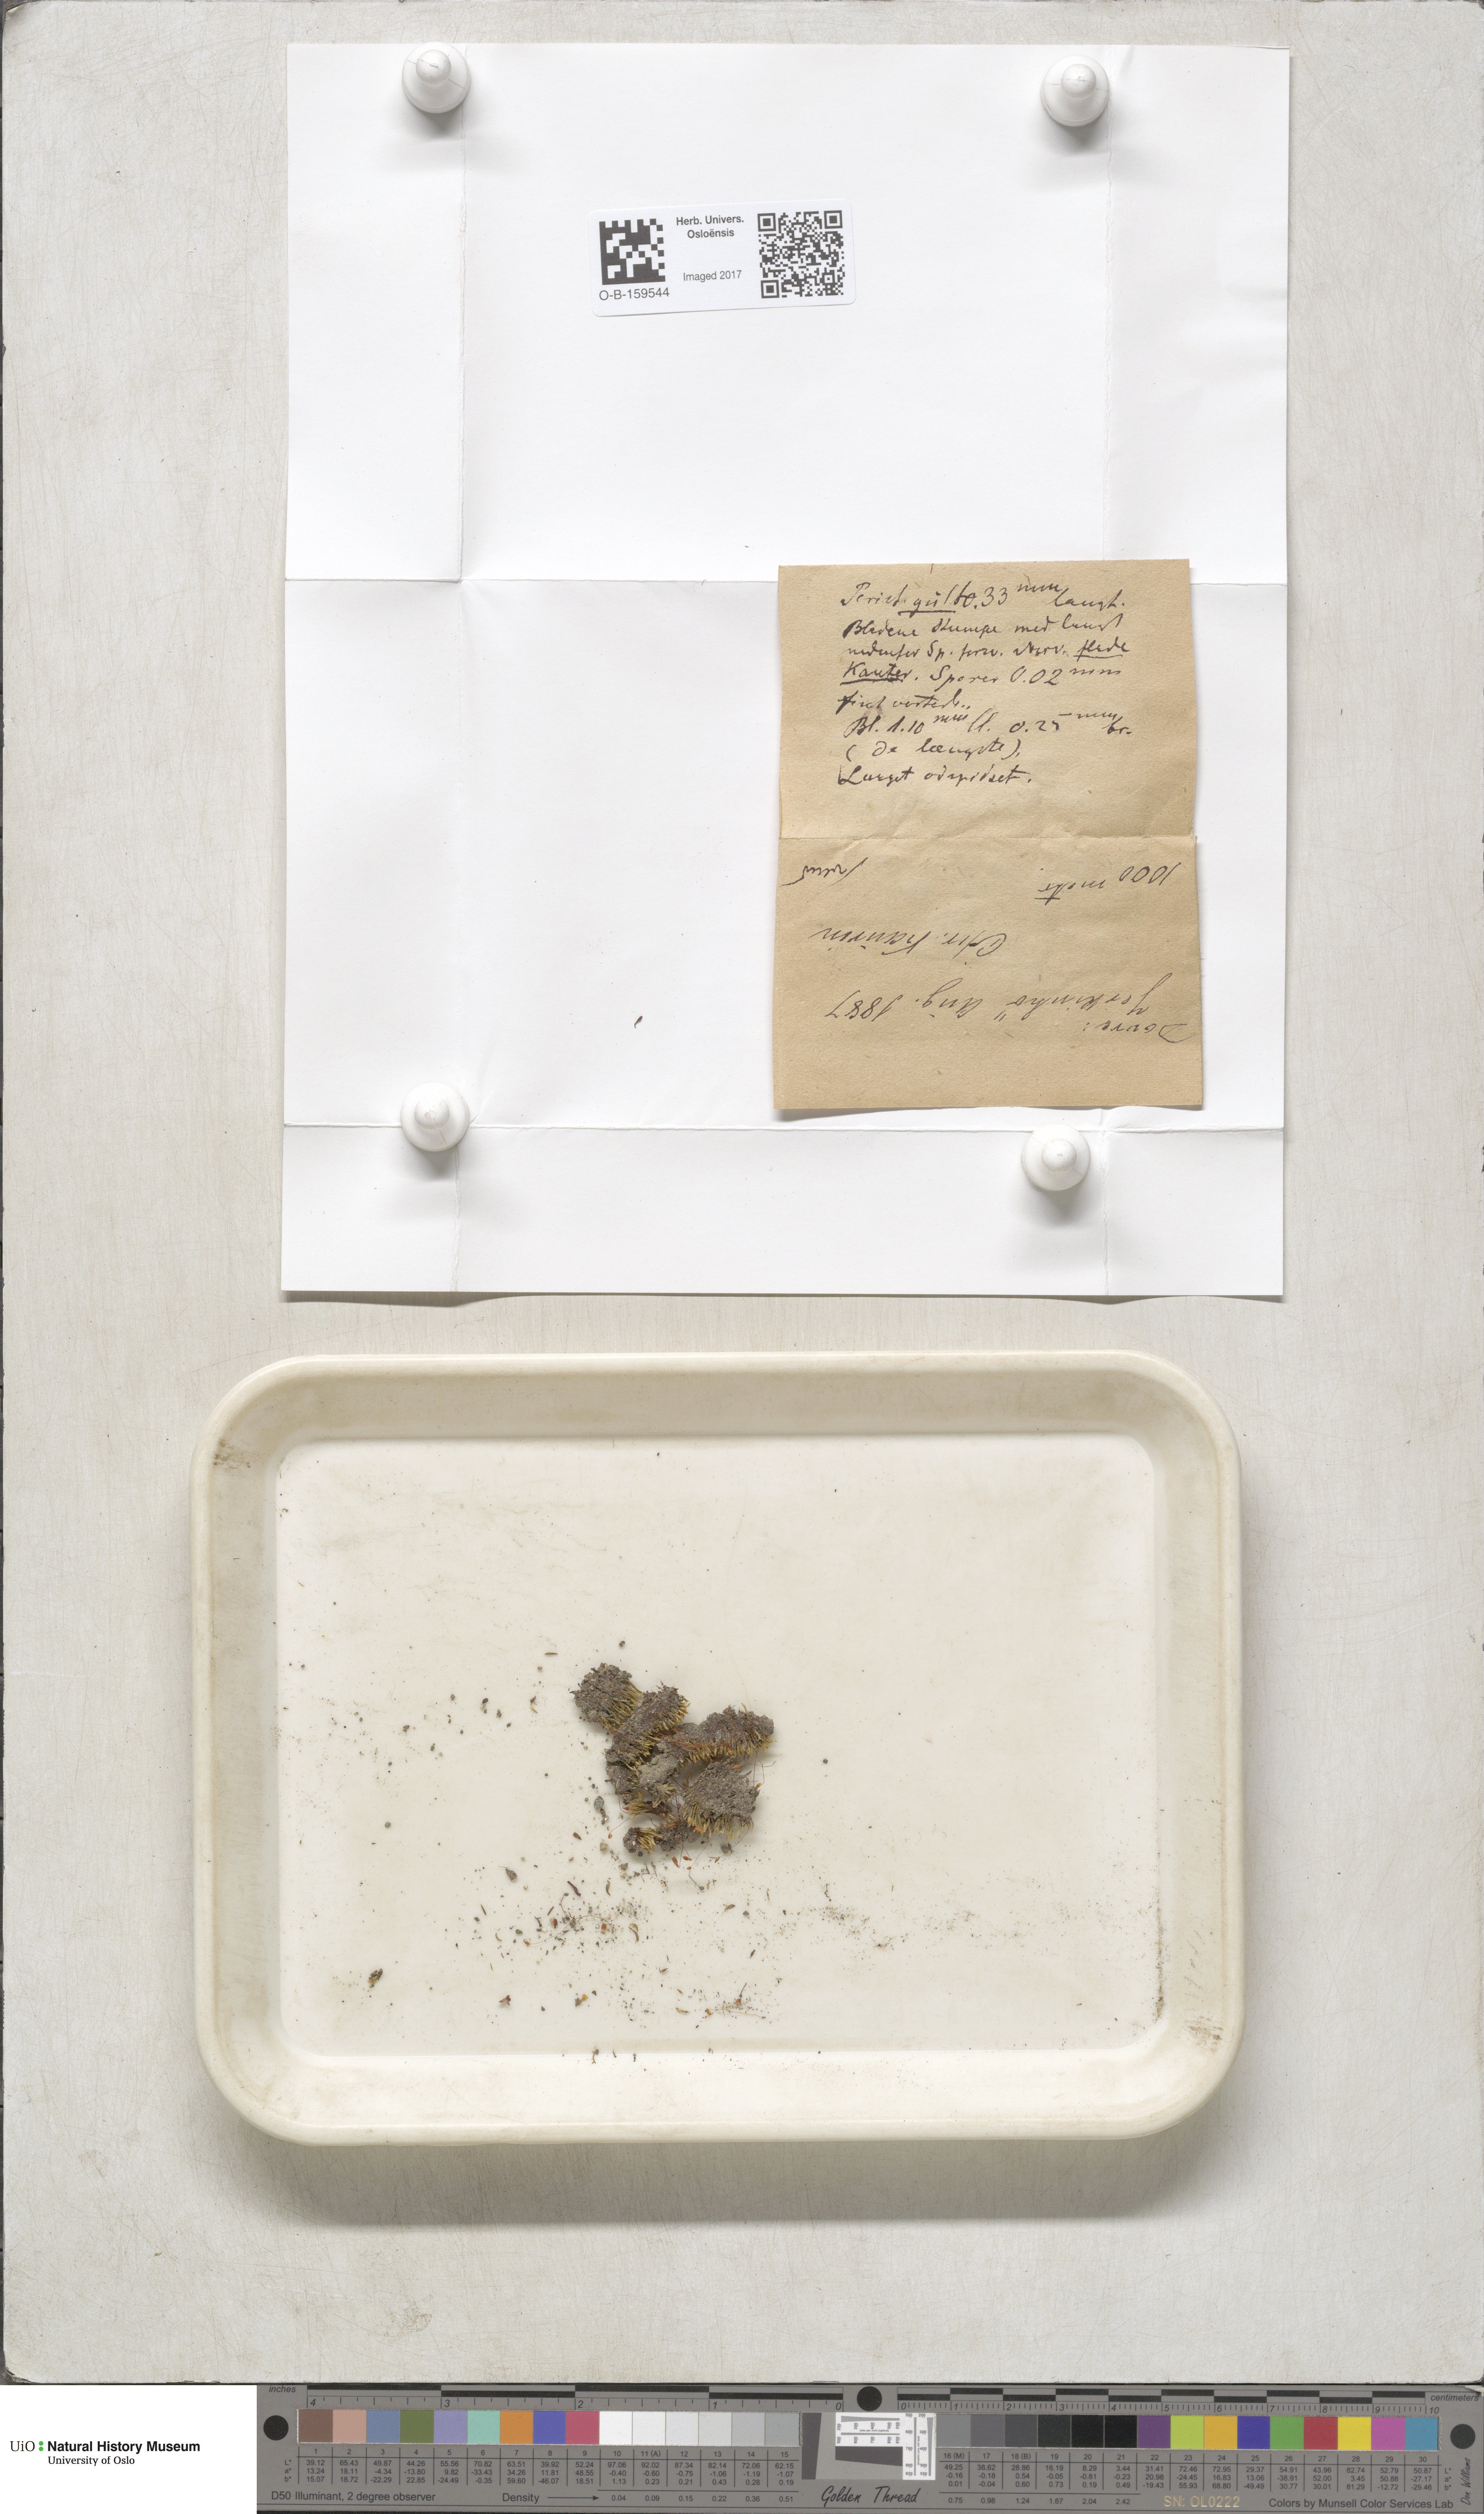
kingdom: Plantae
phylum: Bryophyta
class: Bryopsida
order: Bryales
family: Mniaceae
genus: Pohlia
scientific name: Pohlia drummondii
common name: Drummond's nodding moss
